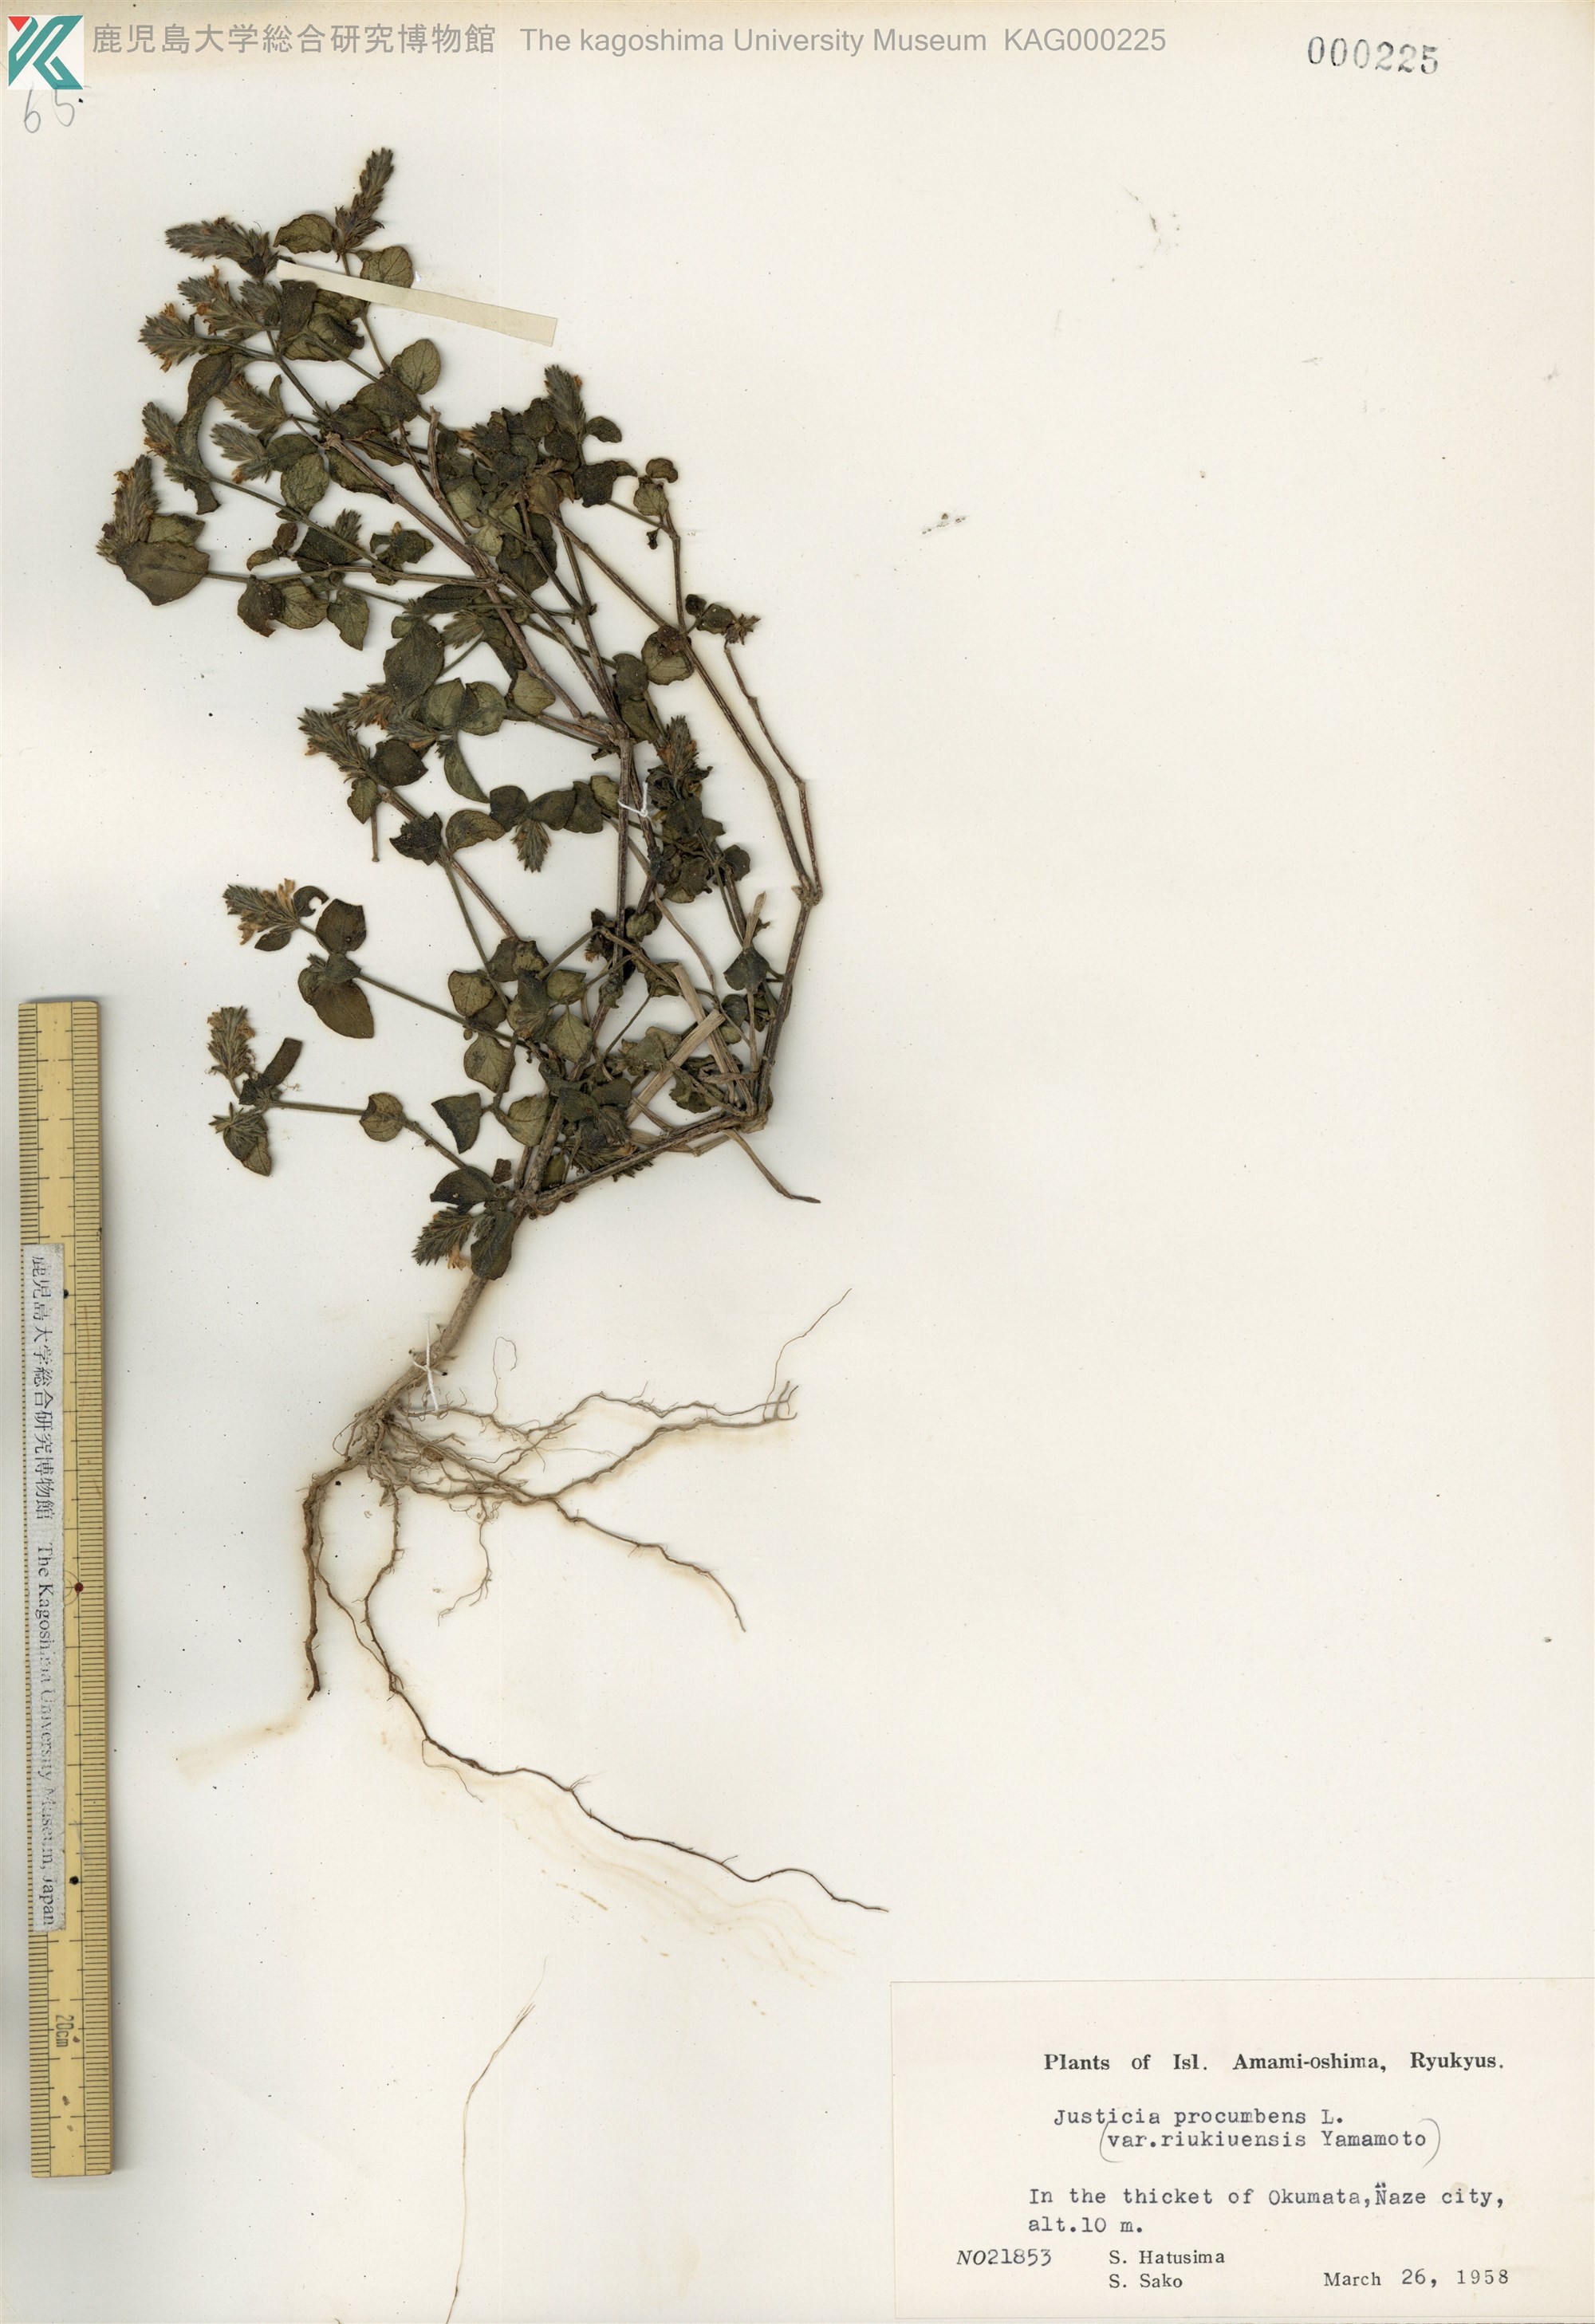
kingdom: Plantae
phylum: Tracheophyta
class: Magnoliopsida
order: Lamiales
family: Acanthaceae
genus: Rostellularia
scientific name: Rostellularia procumbens
